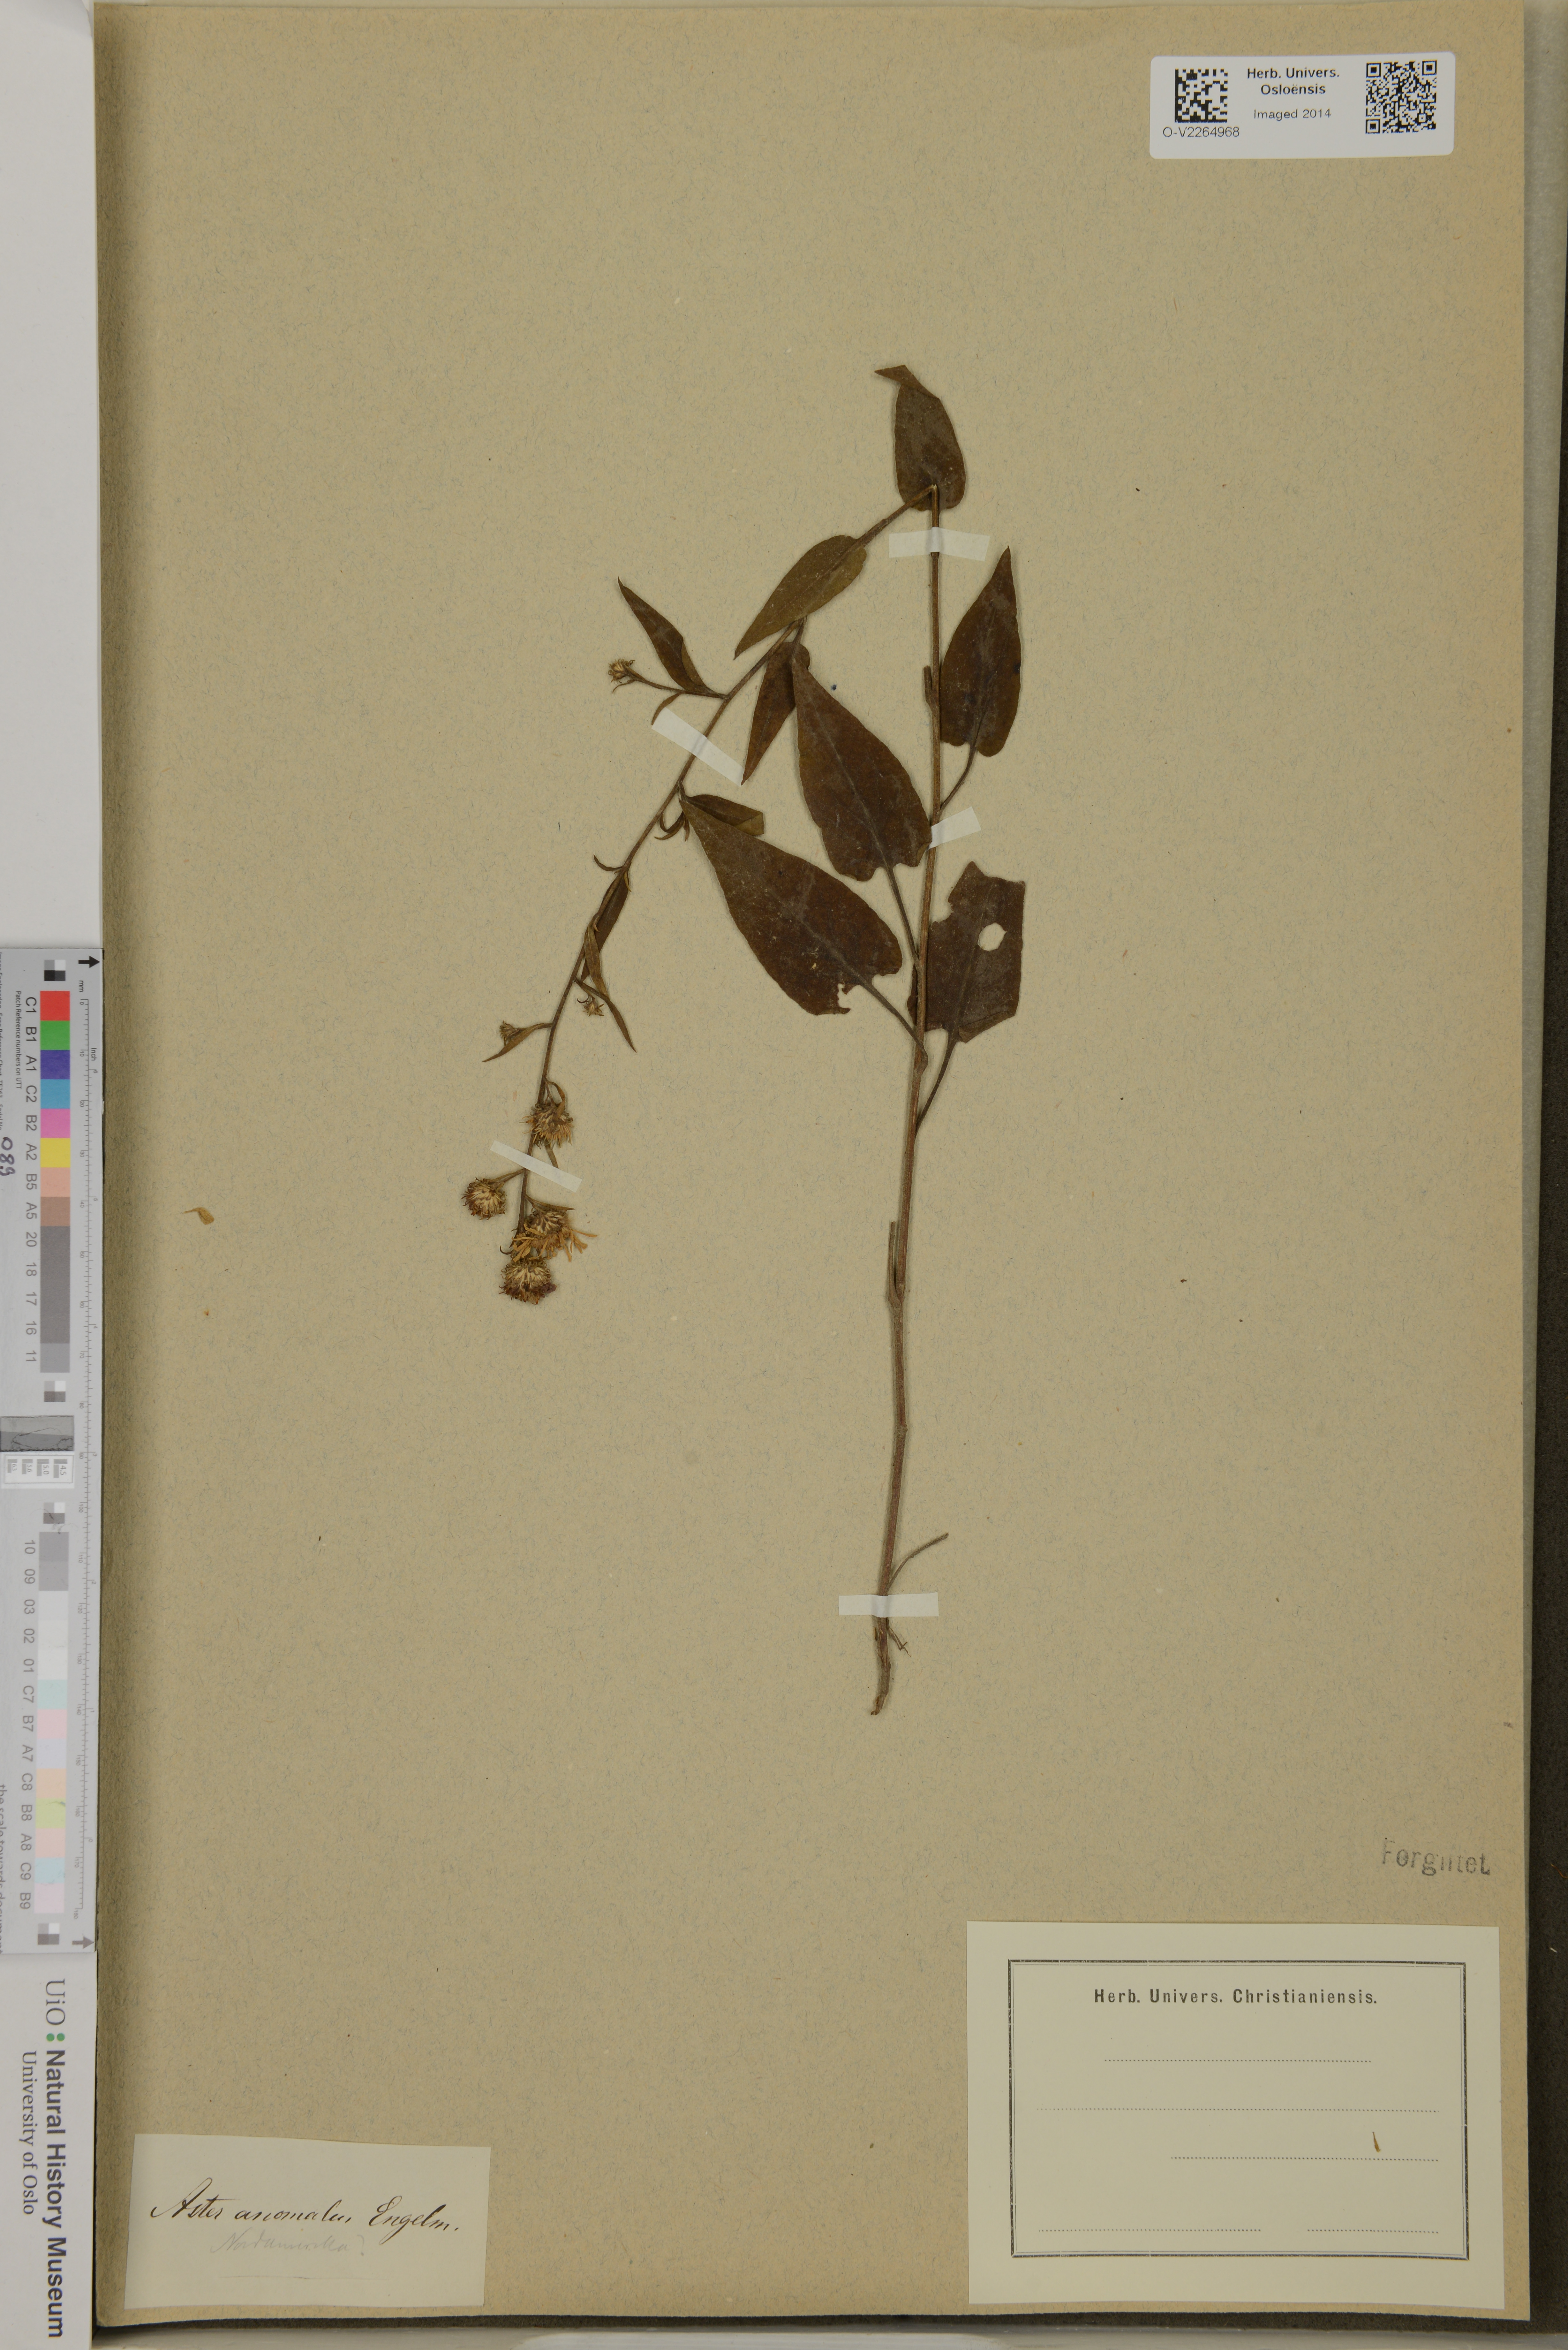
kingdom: Plantae
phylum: Tracheophyta
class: Magnoliopsida
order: Asterales
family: Asteraceae
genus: Symphyotrichum
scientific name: Symphyotrichum anomalum
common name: Many-ray aster
